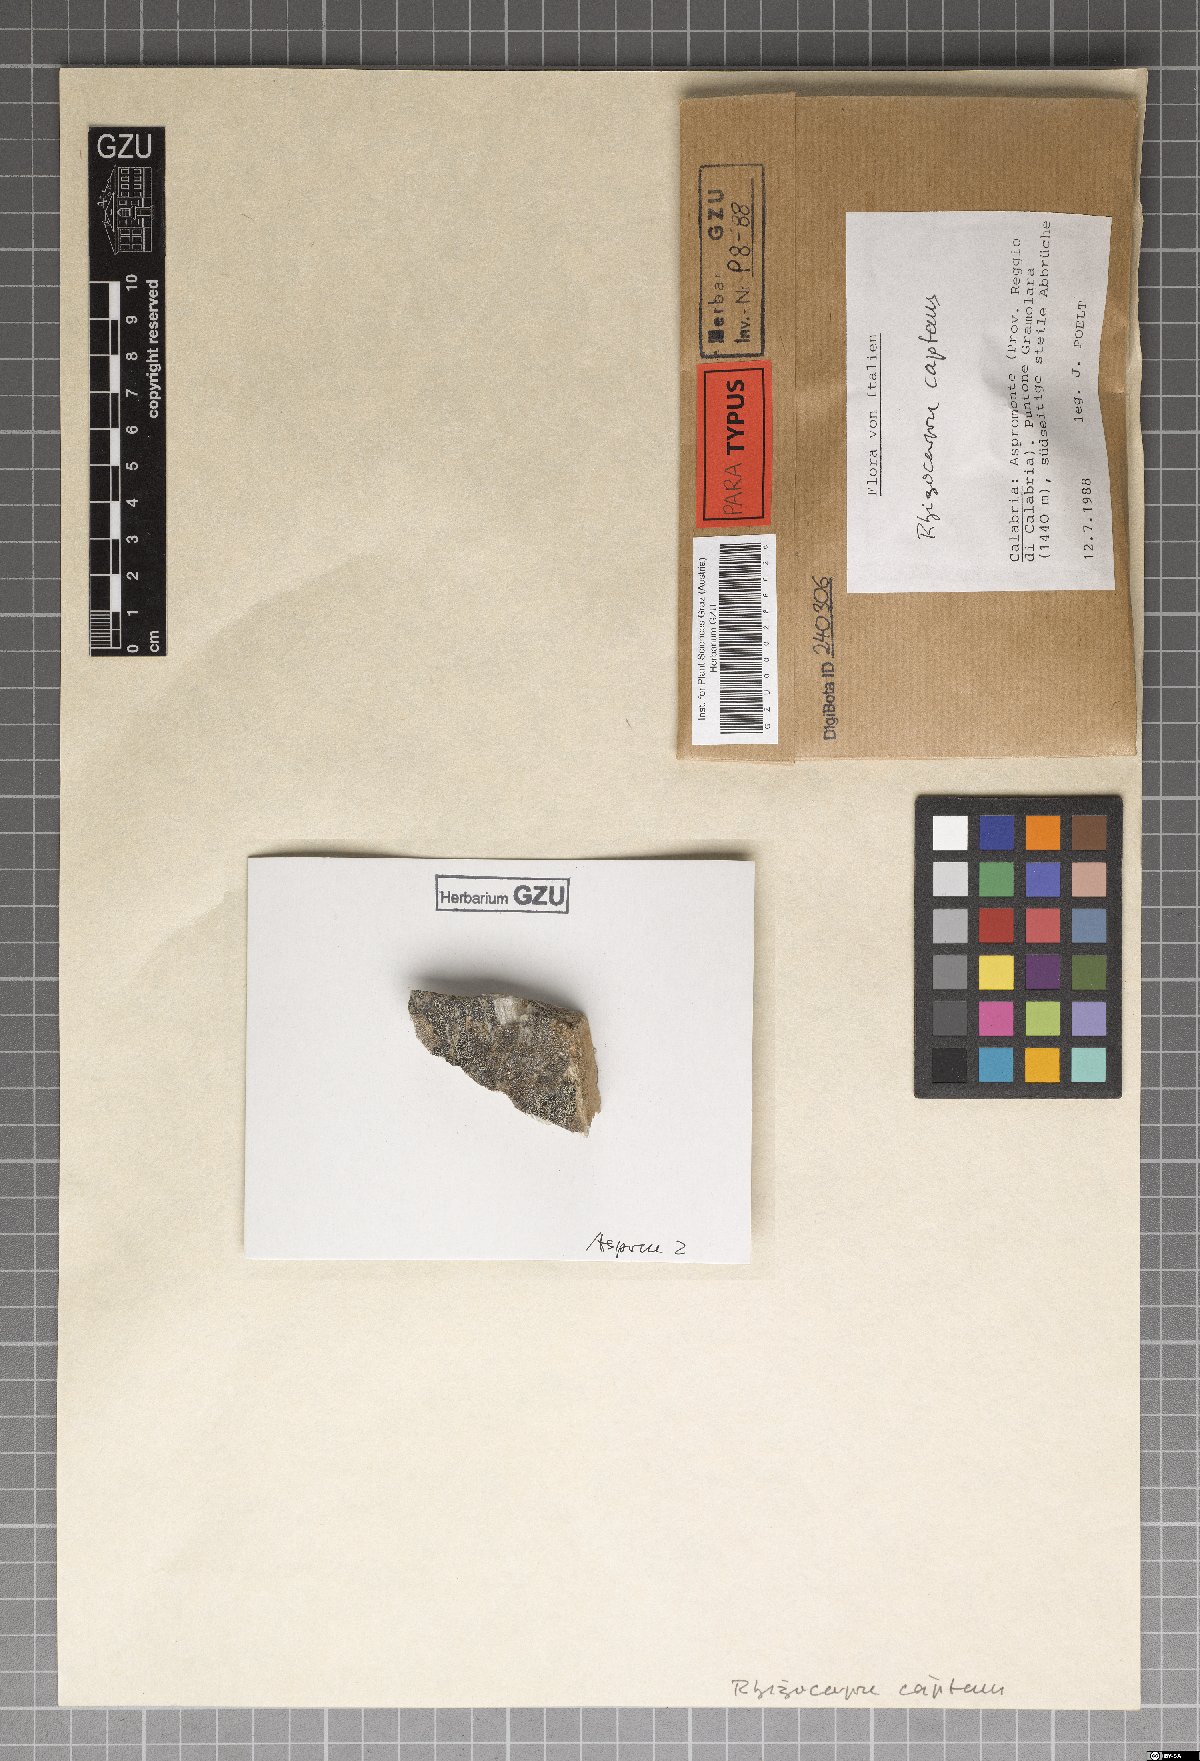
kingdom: Fungi
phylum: Ascomycota
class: Lecanoromycetes
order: Rhizocarpales
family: Rhizocarpaceae
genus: Rhizocarpon
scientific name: Rhizocarpon
